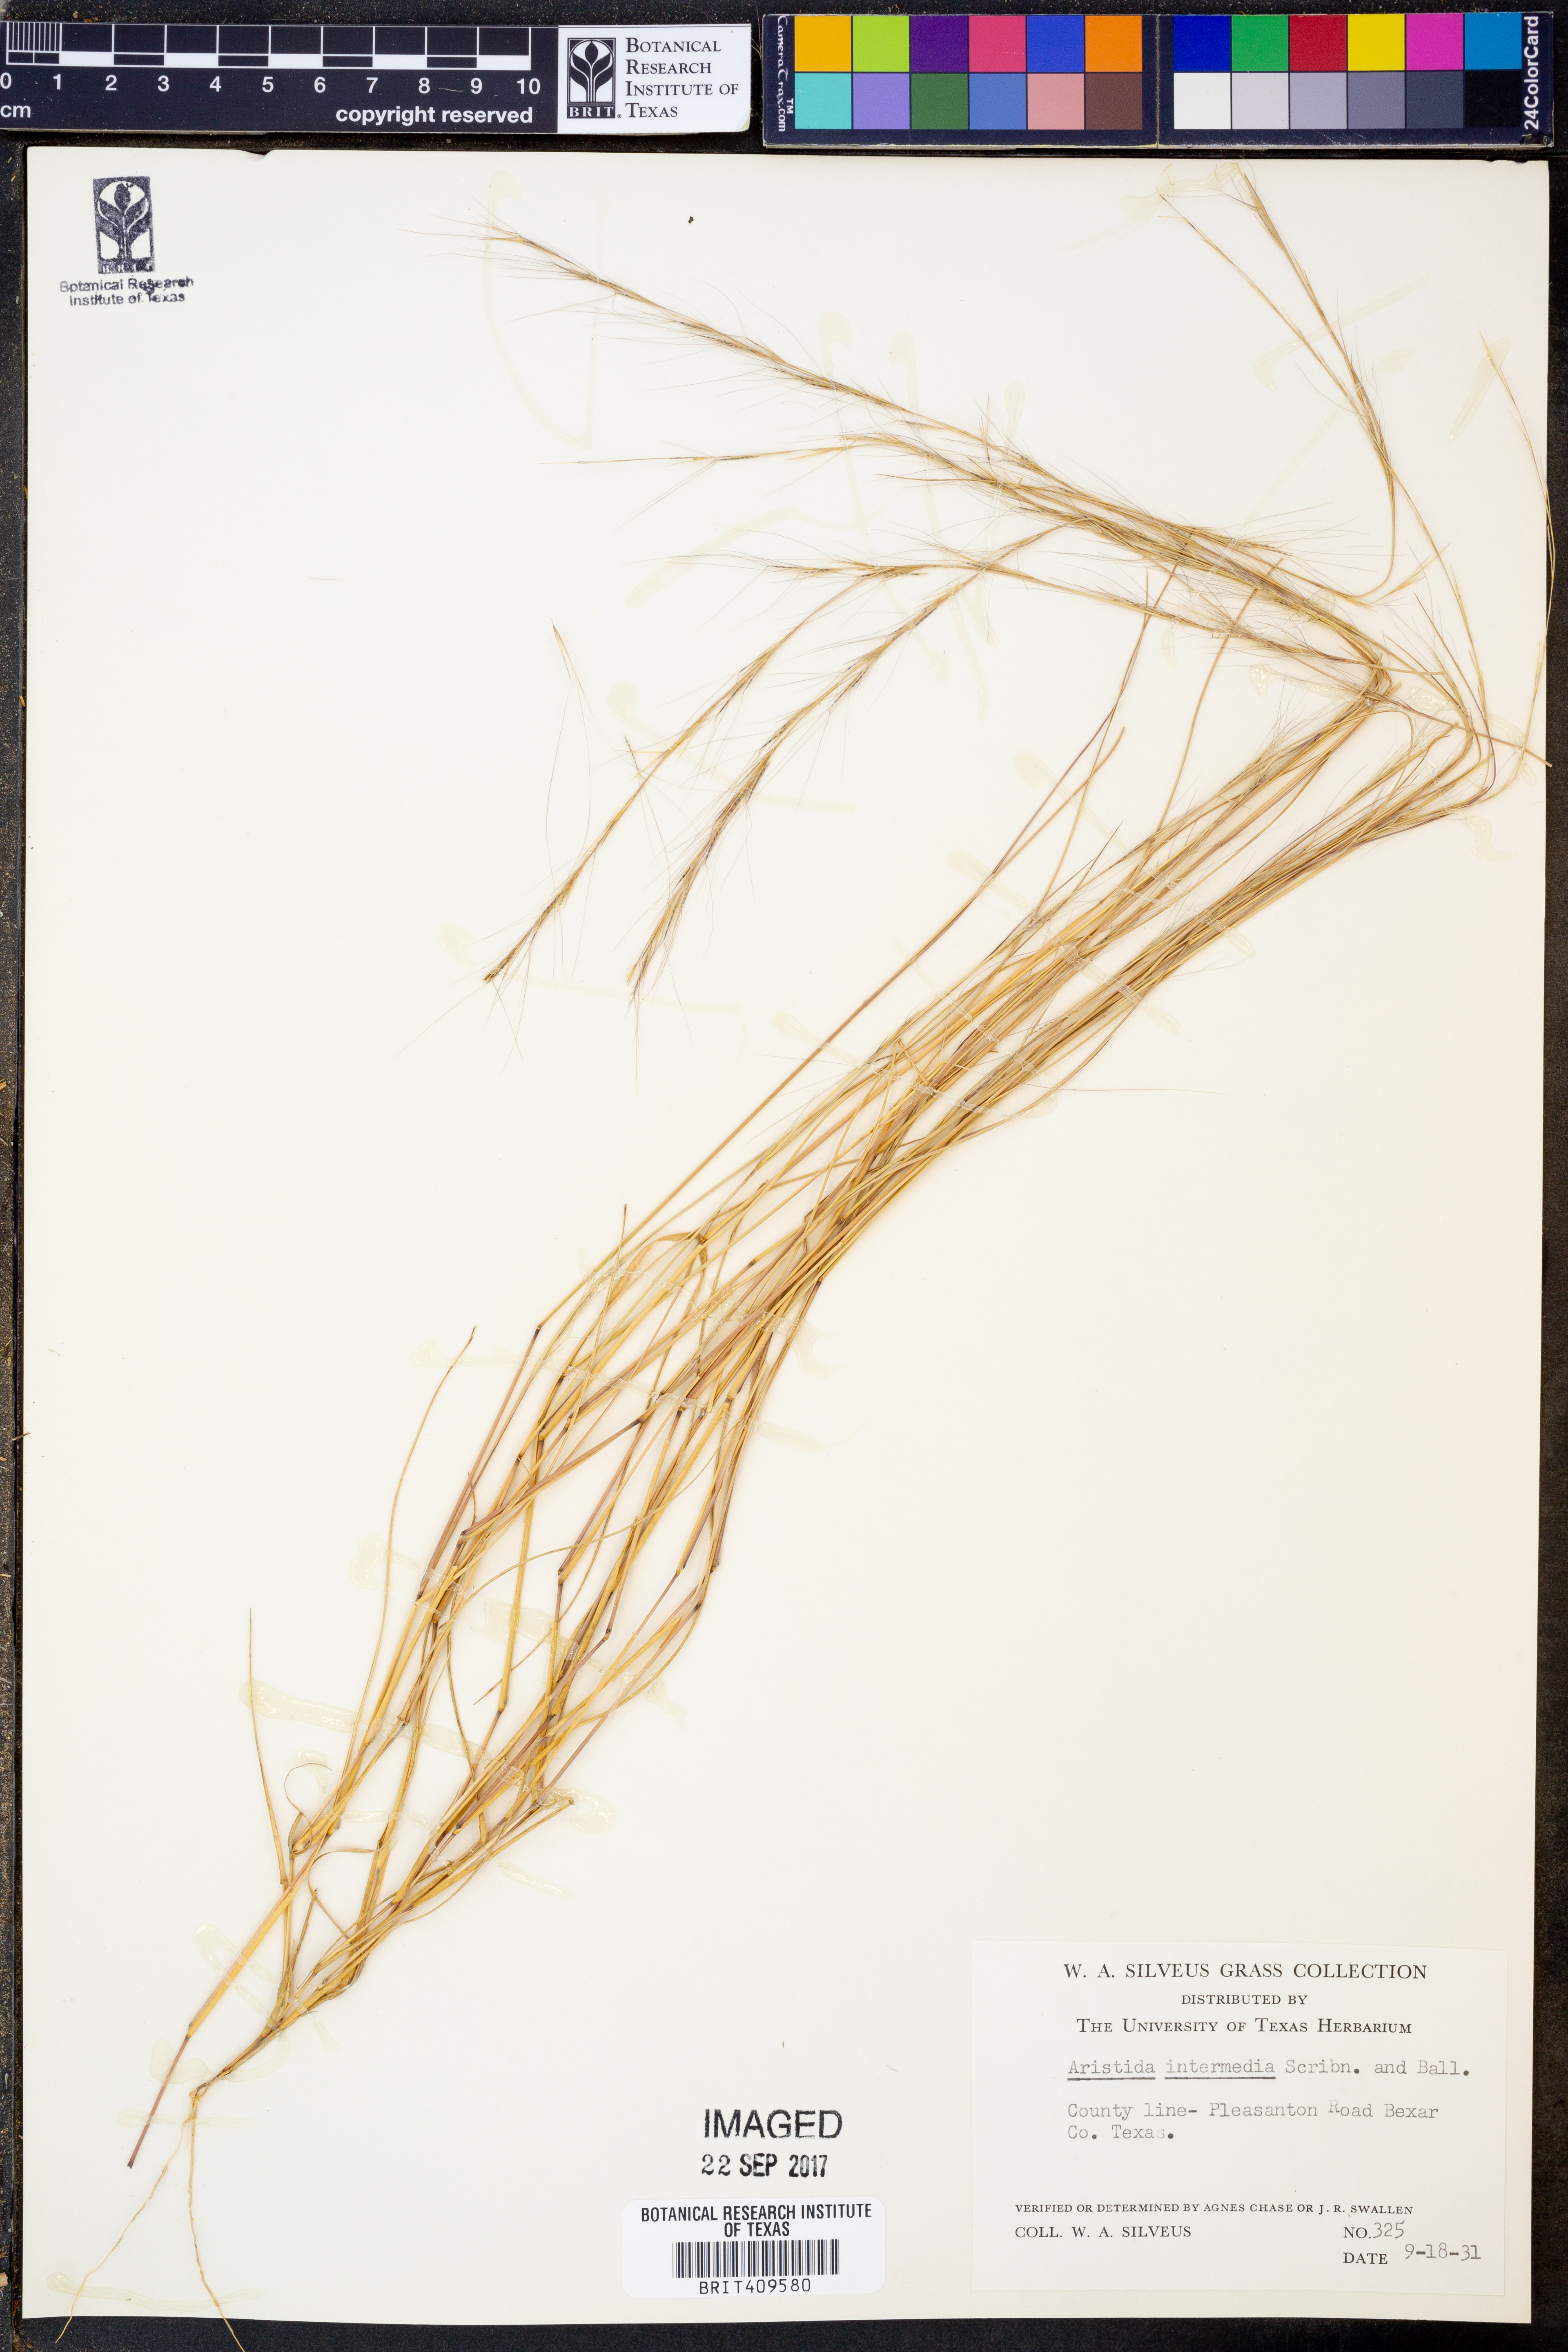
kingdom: Plantae
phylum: Tracheophyta
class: Liliopsida
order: Poales
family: Poaceae
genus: Aristida
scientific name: Aristida longespica
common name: Long-spiked triple-awned grass
